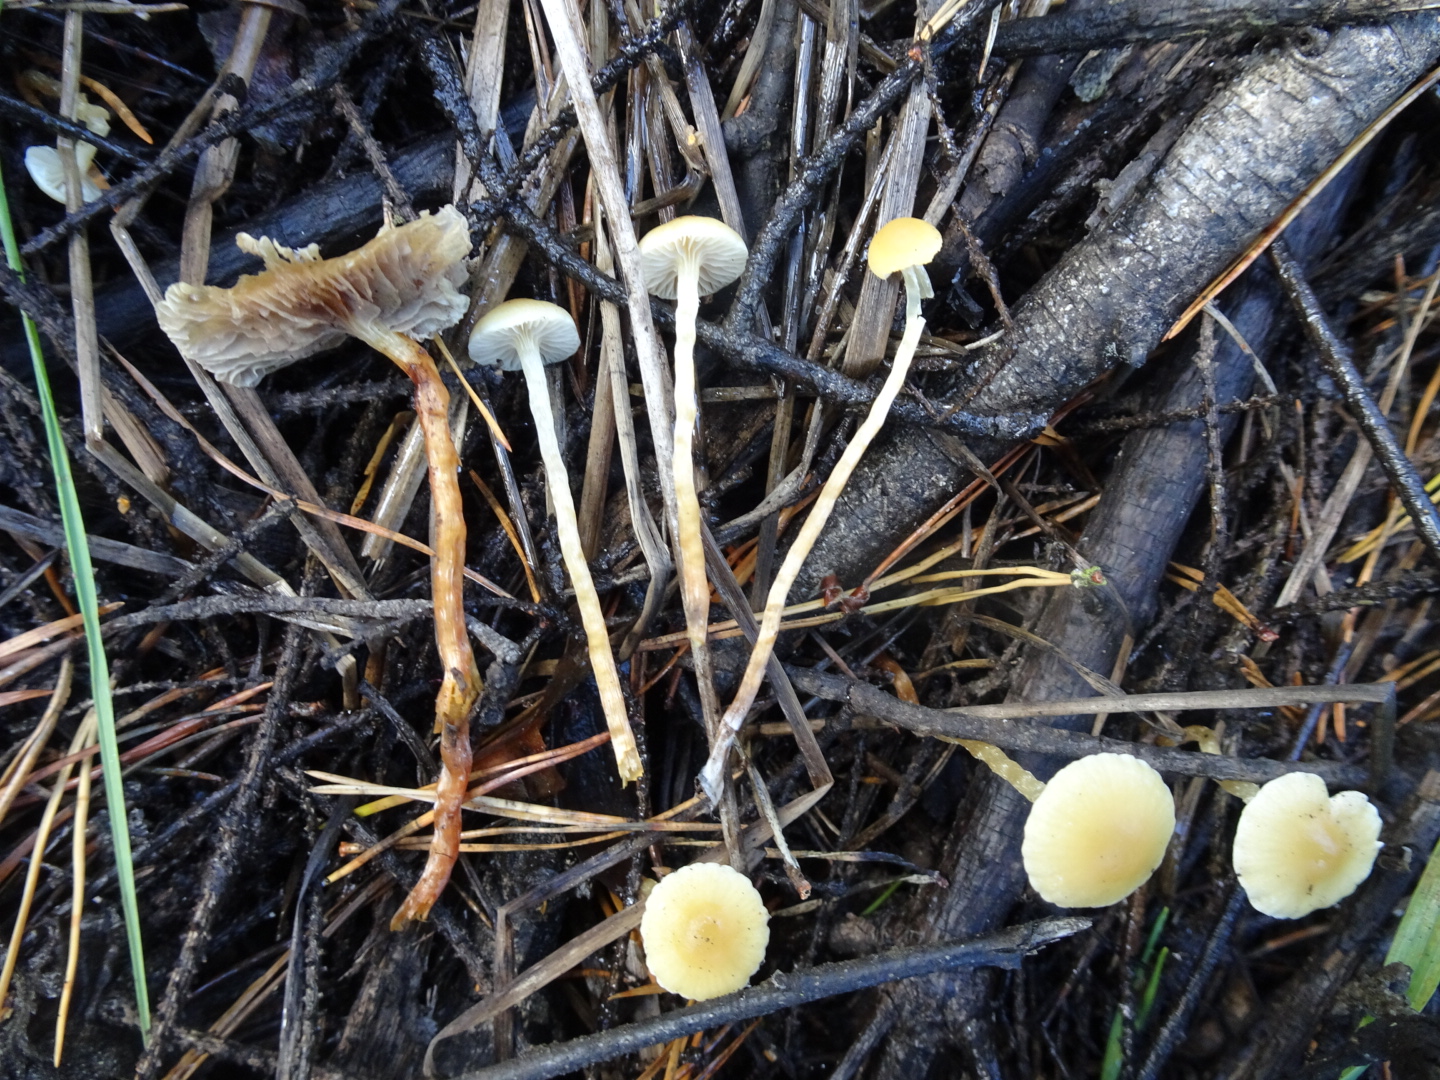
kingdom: Fungi
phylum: Basidiomycota
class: Agaricomycetes
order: Agaricales
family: Strophariaceae
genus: Hypholoma
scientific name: Hypholoma elongatum
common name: slank svovlhat
